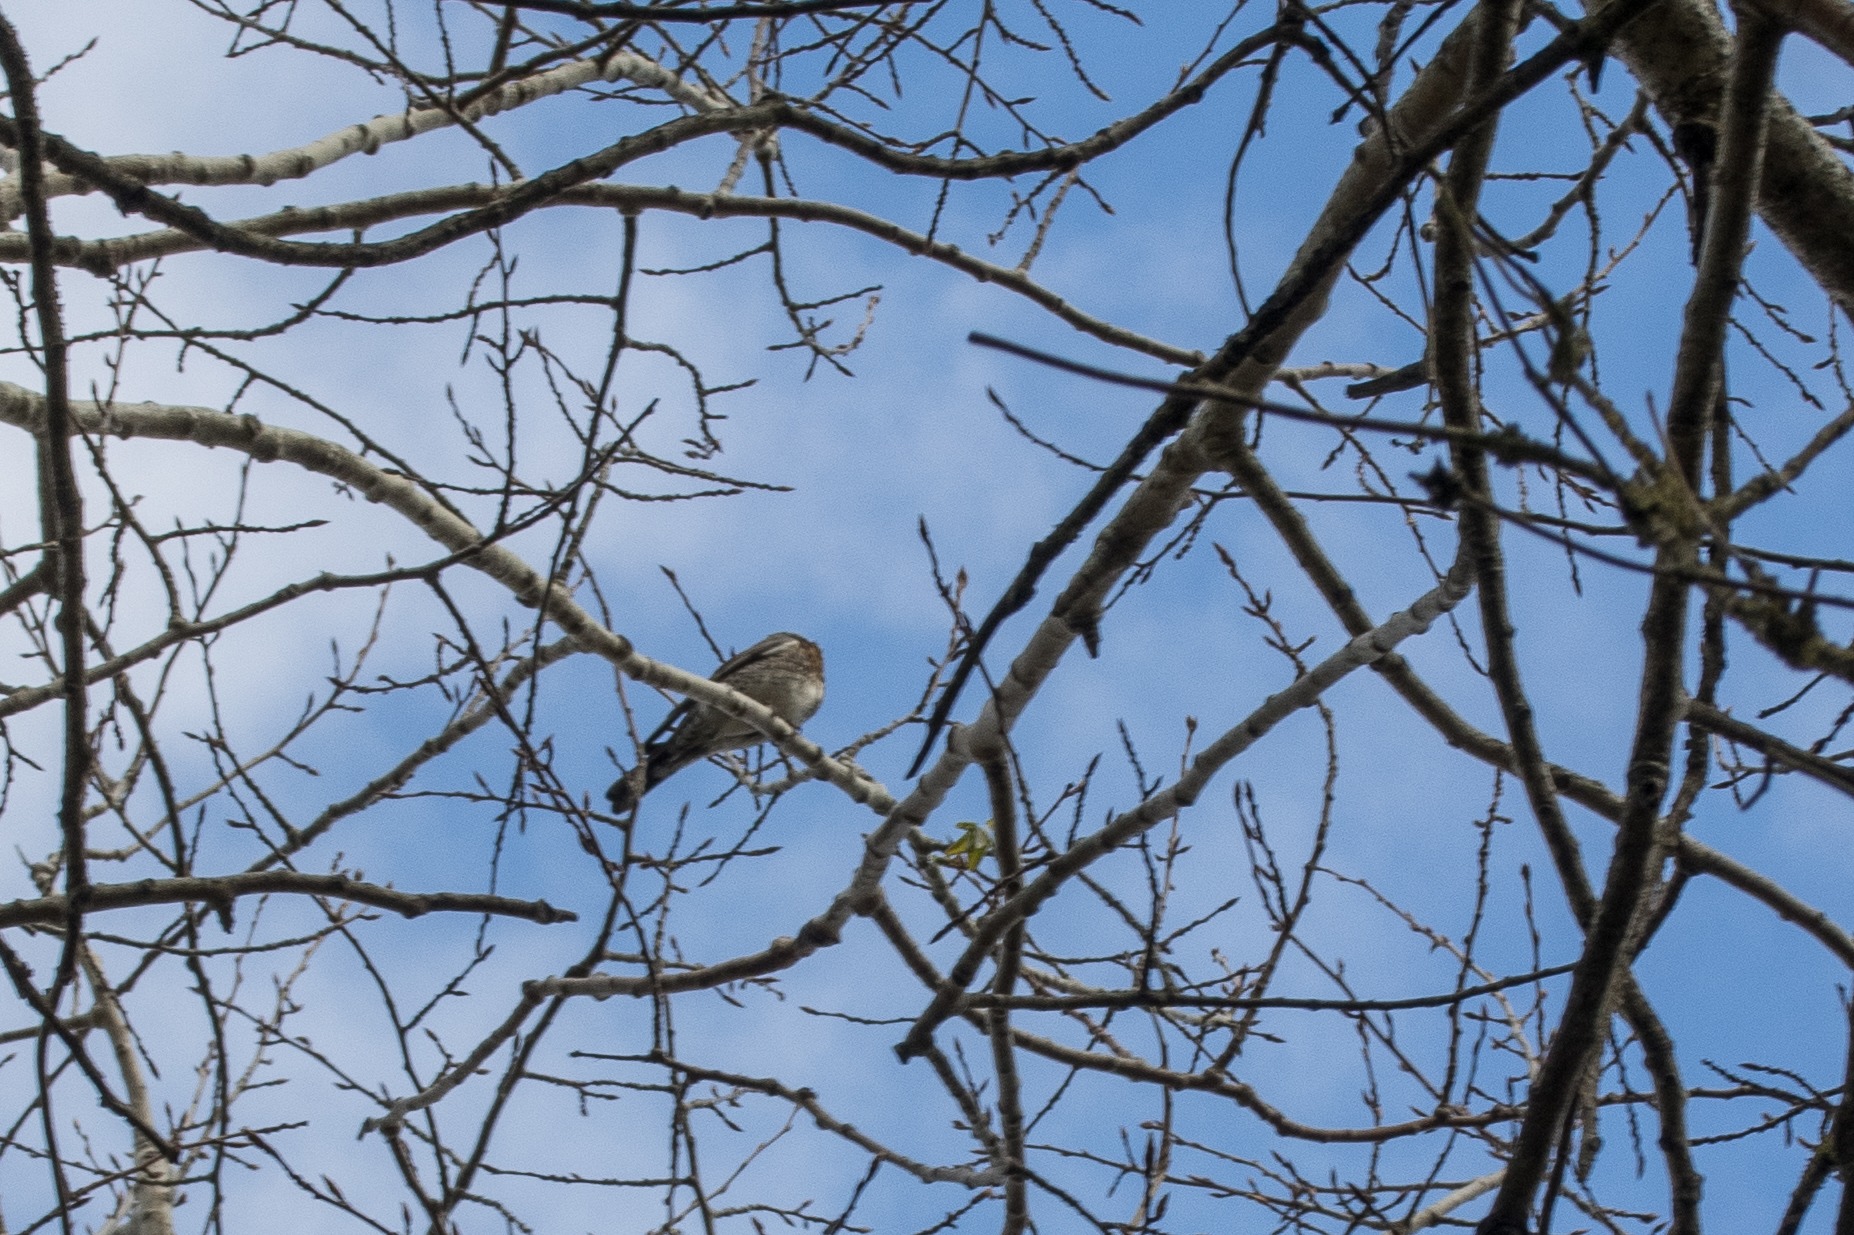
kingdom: Animalia
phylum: Chordata
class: Aves
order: Passeriformes
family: Turdidae
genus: Turdus
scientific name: Turdus pilaris
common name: Sjagger
